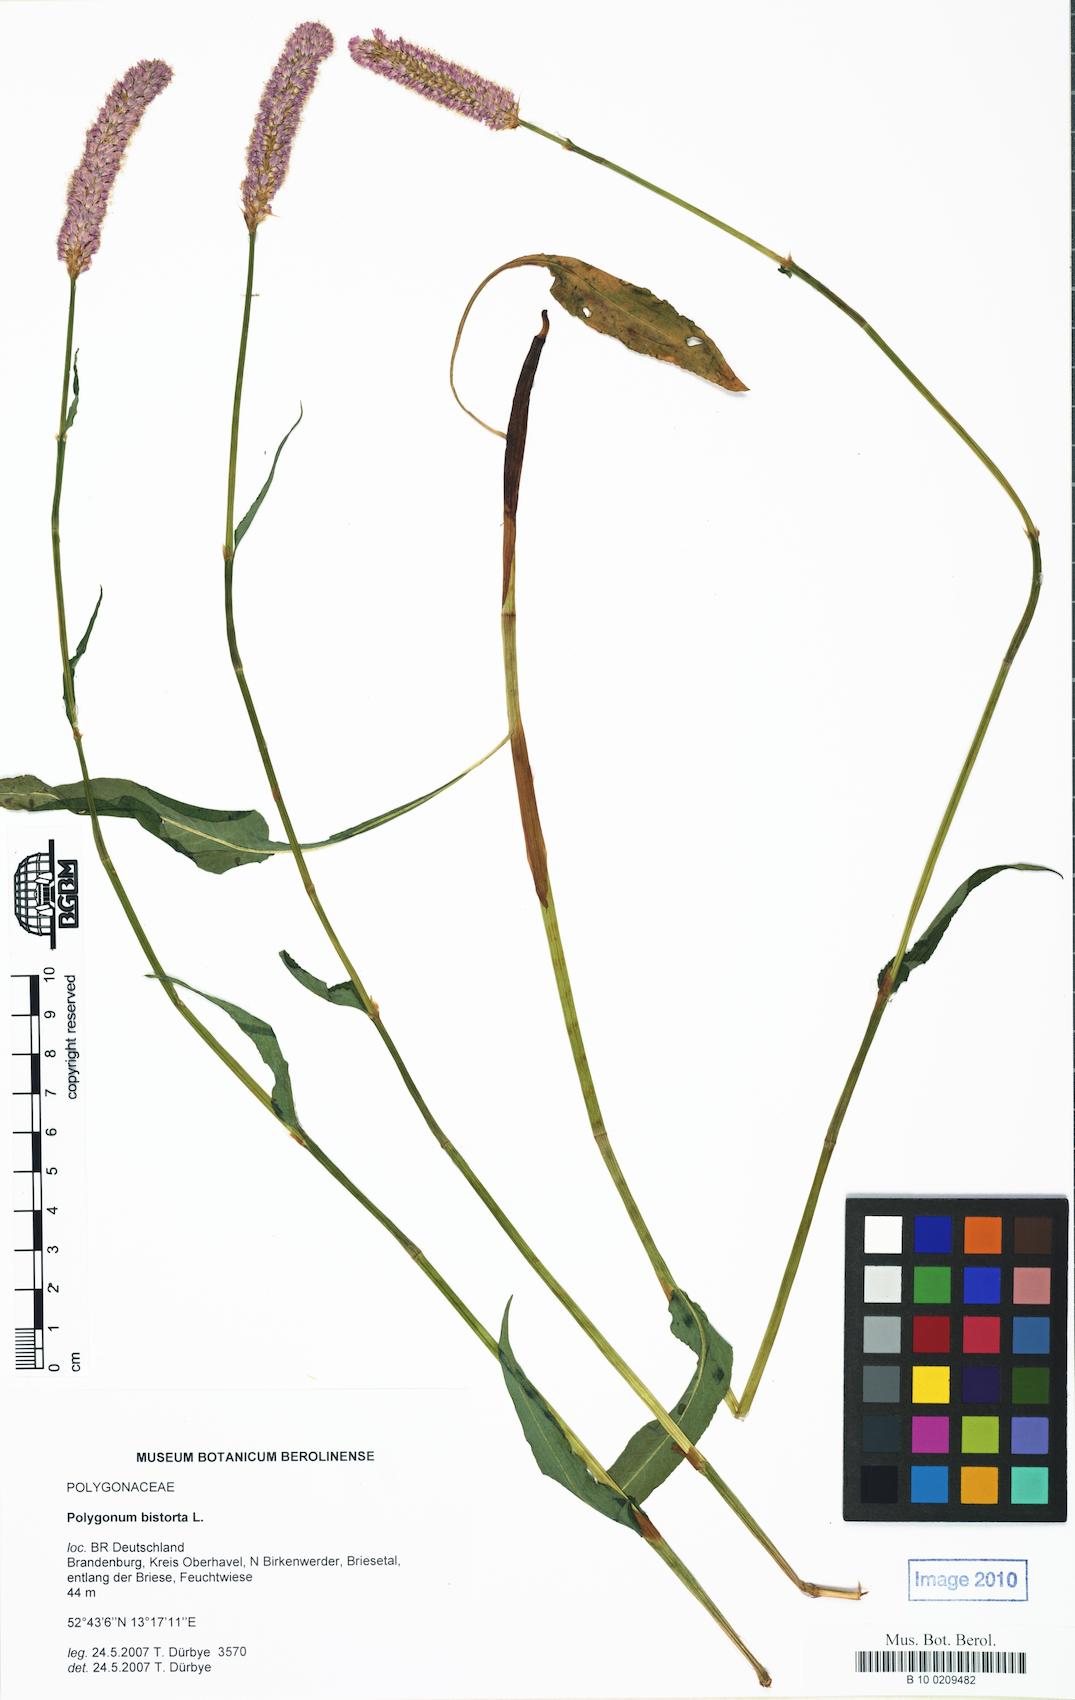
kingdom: Plantae
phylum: Tracheophyta
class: Magnoliopsida
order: Caryophyllales
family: Polygonaceae
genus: Bistorta
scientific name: Bistorta officinalis
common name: Common bistort
